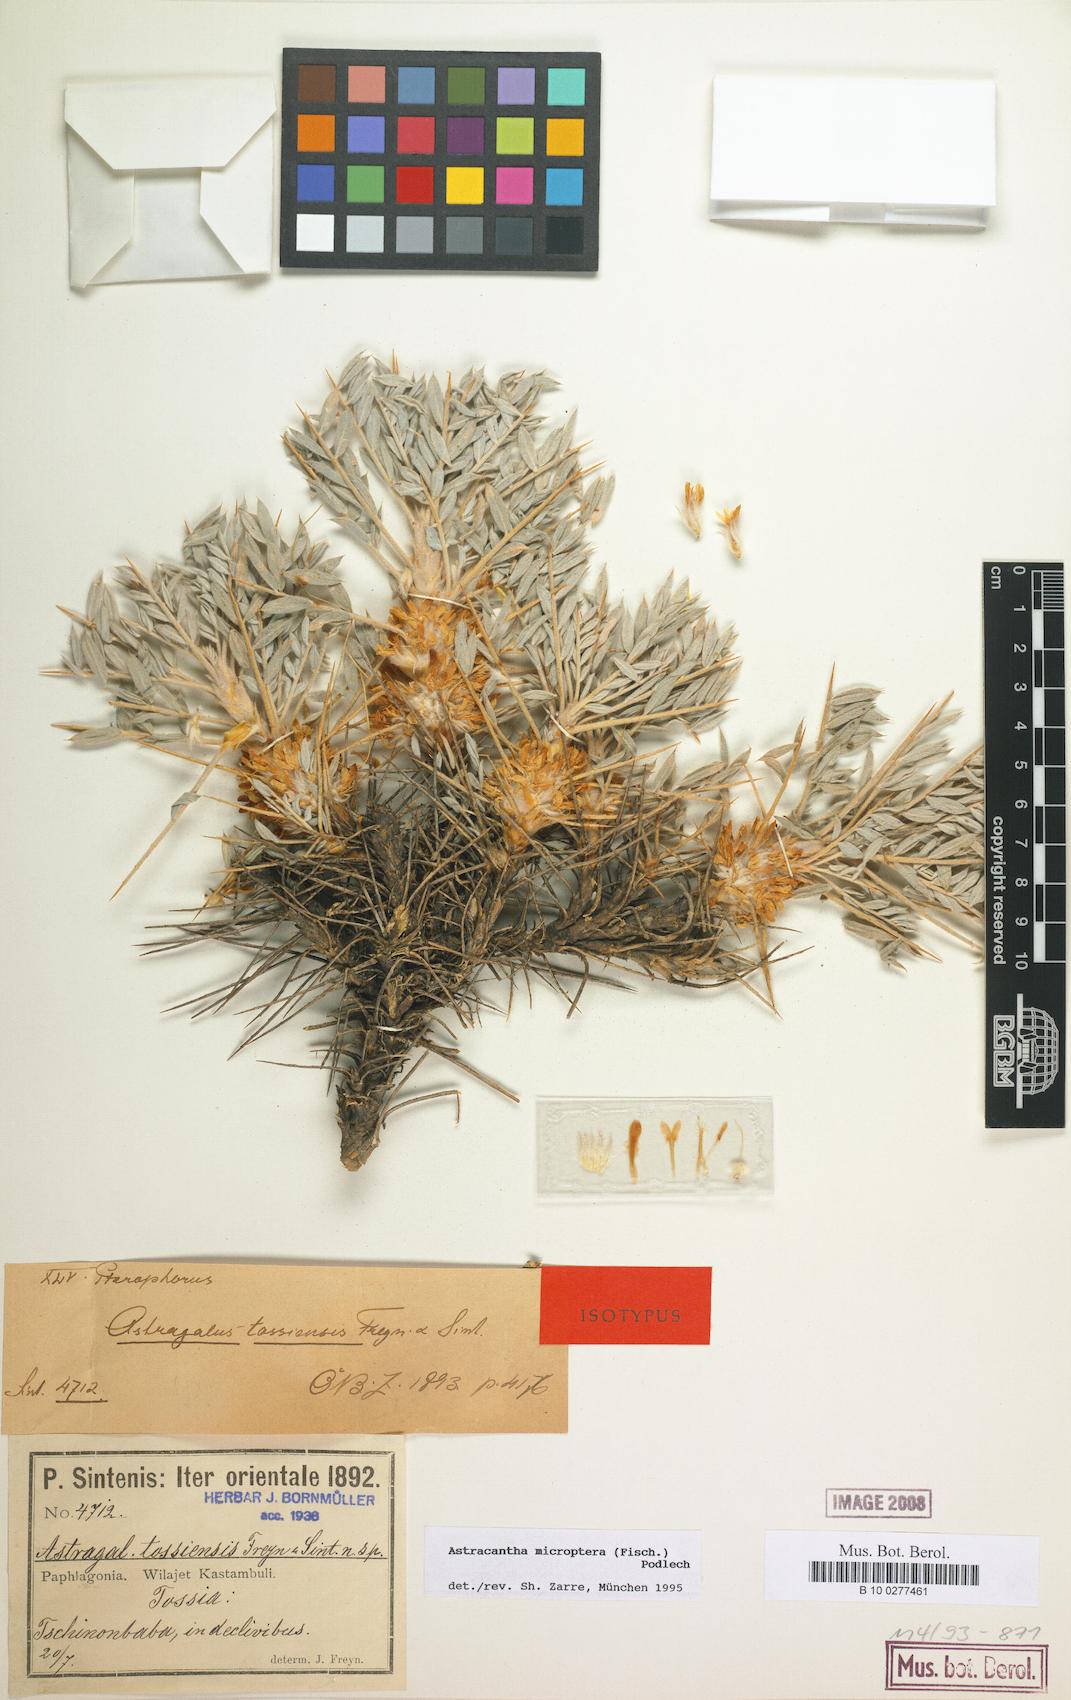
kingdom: Plantae
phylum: Tracheophyta
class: Magnoliopsida
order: Fabales
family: Fabaceae
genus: Astragalus
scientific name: Astragalus micropterus
